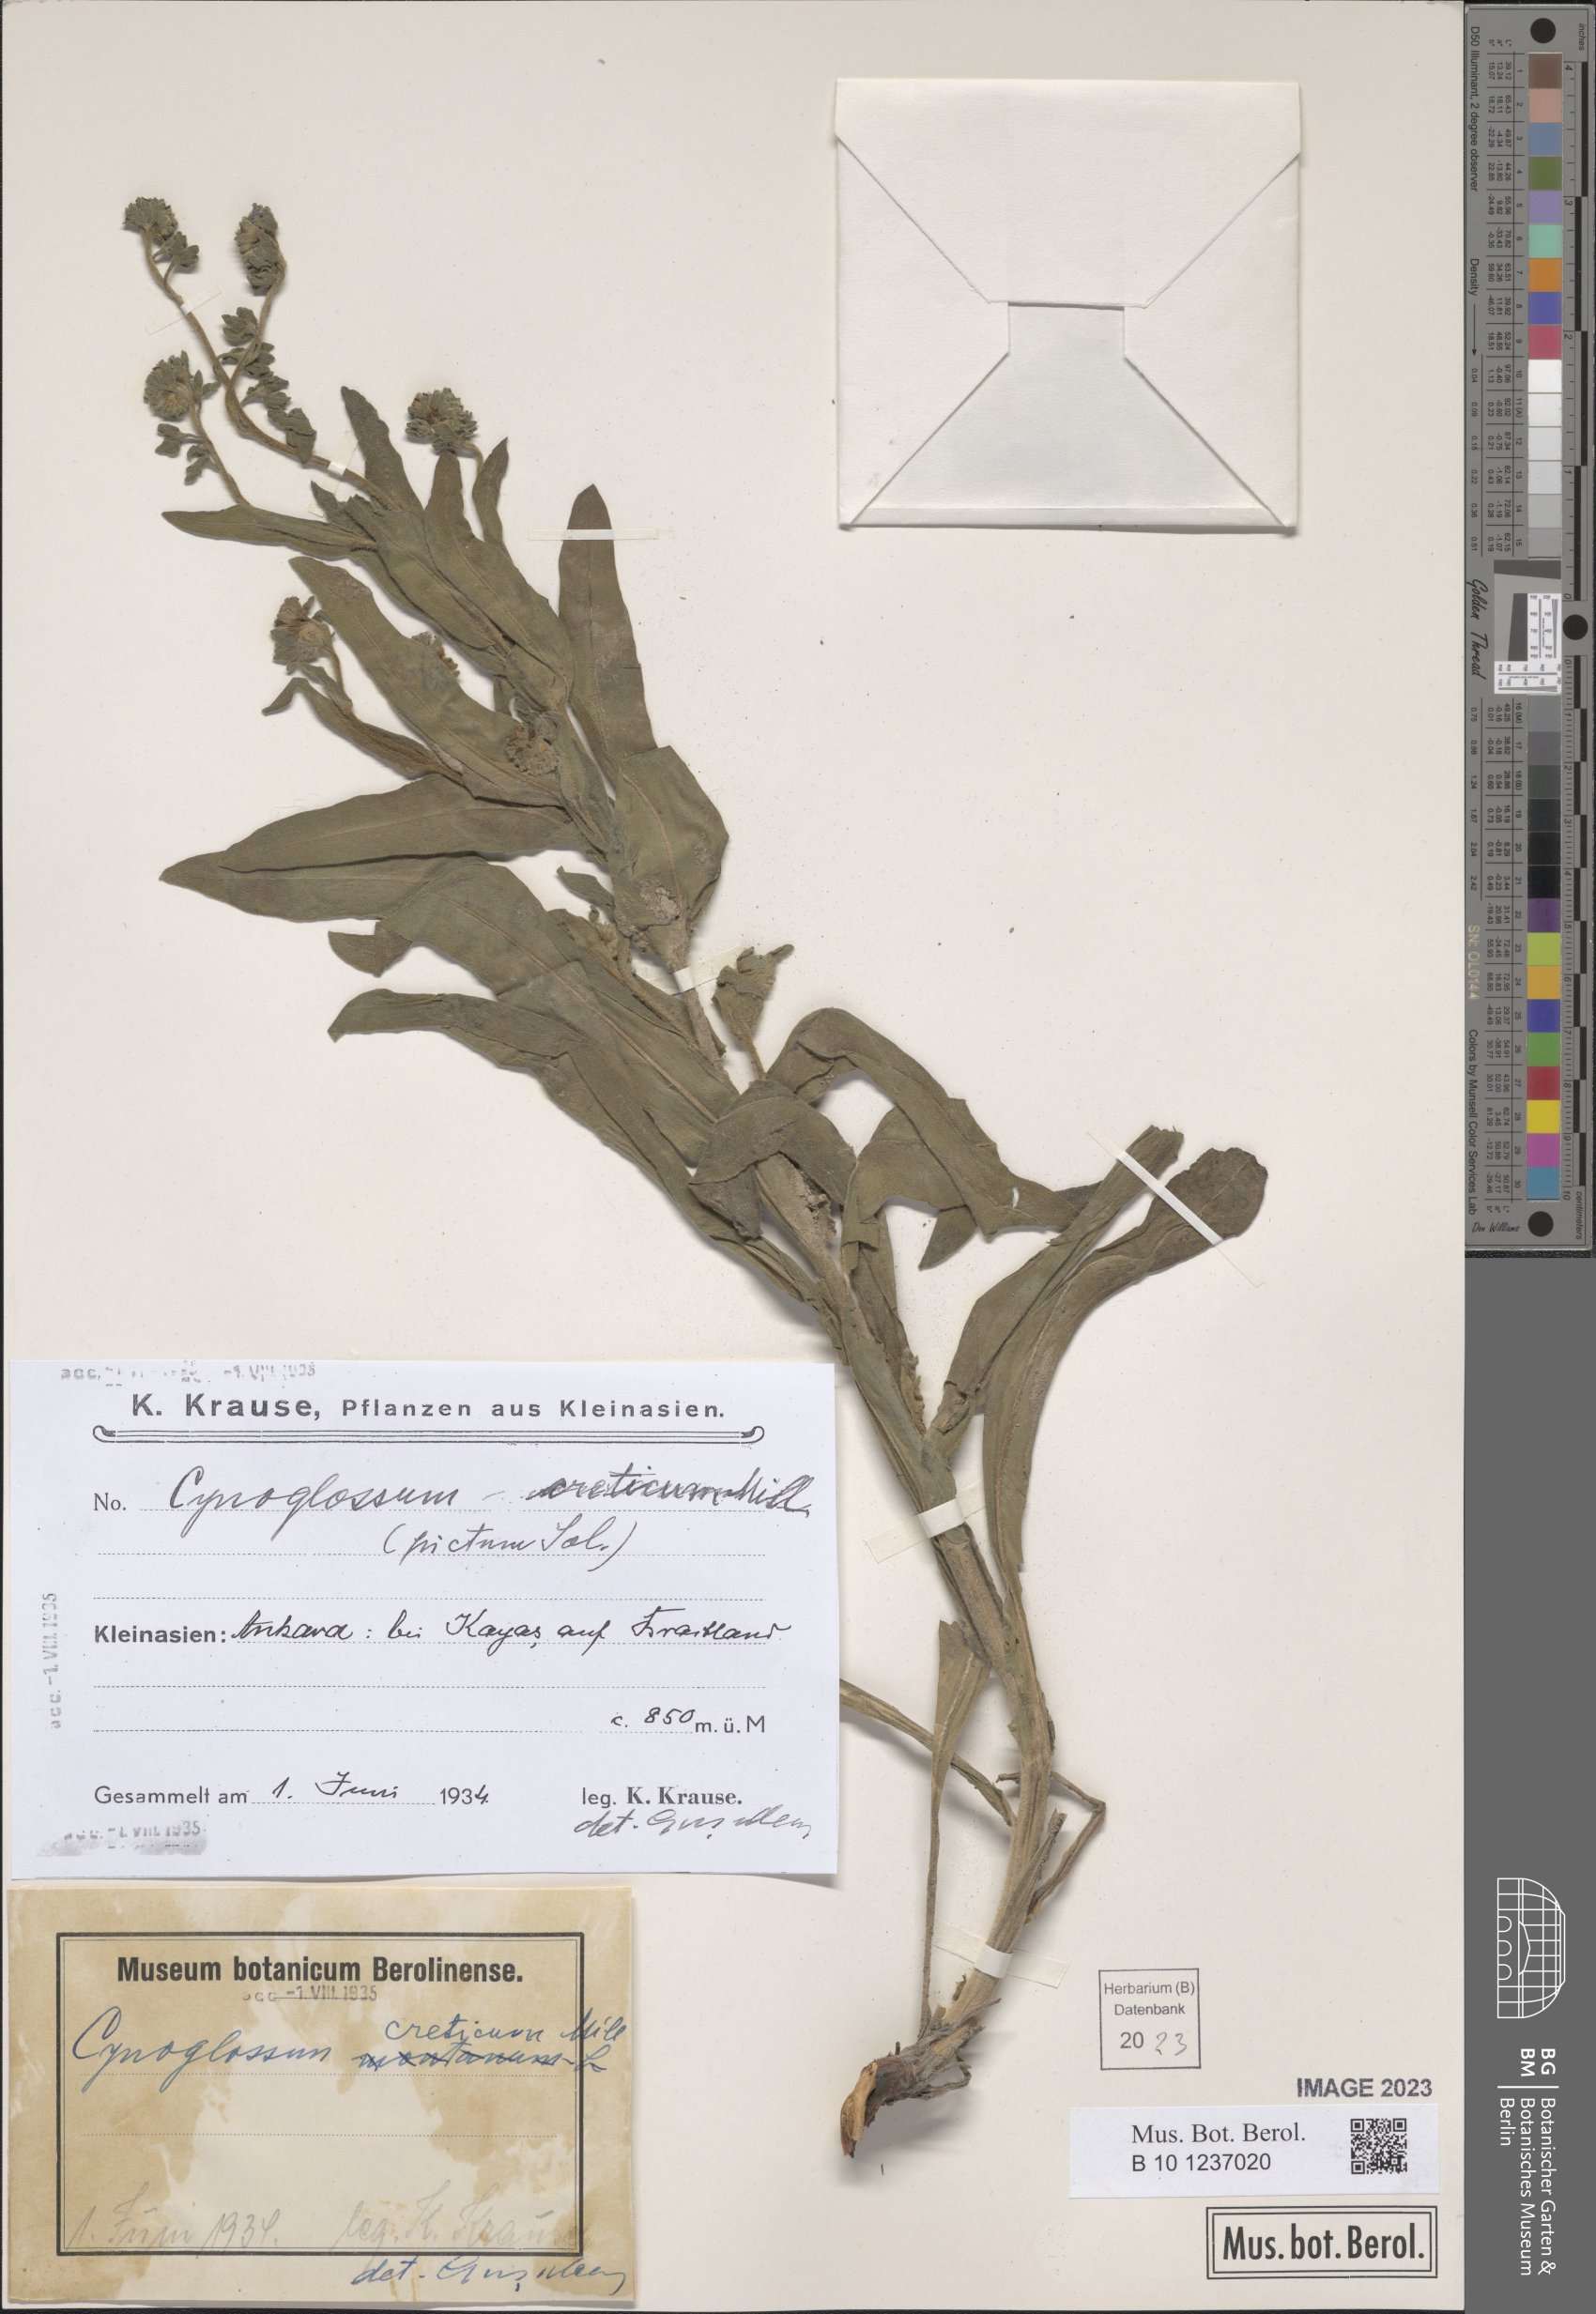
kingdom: Plantae
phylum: Tracheophyta
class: Magnoliopsida
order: Boraginales
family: Boraginaceae
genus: Cynoglossum
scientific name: Cynoglossum creticum
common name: Blue hound's tongue
